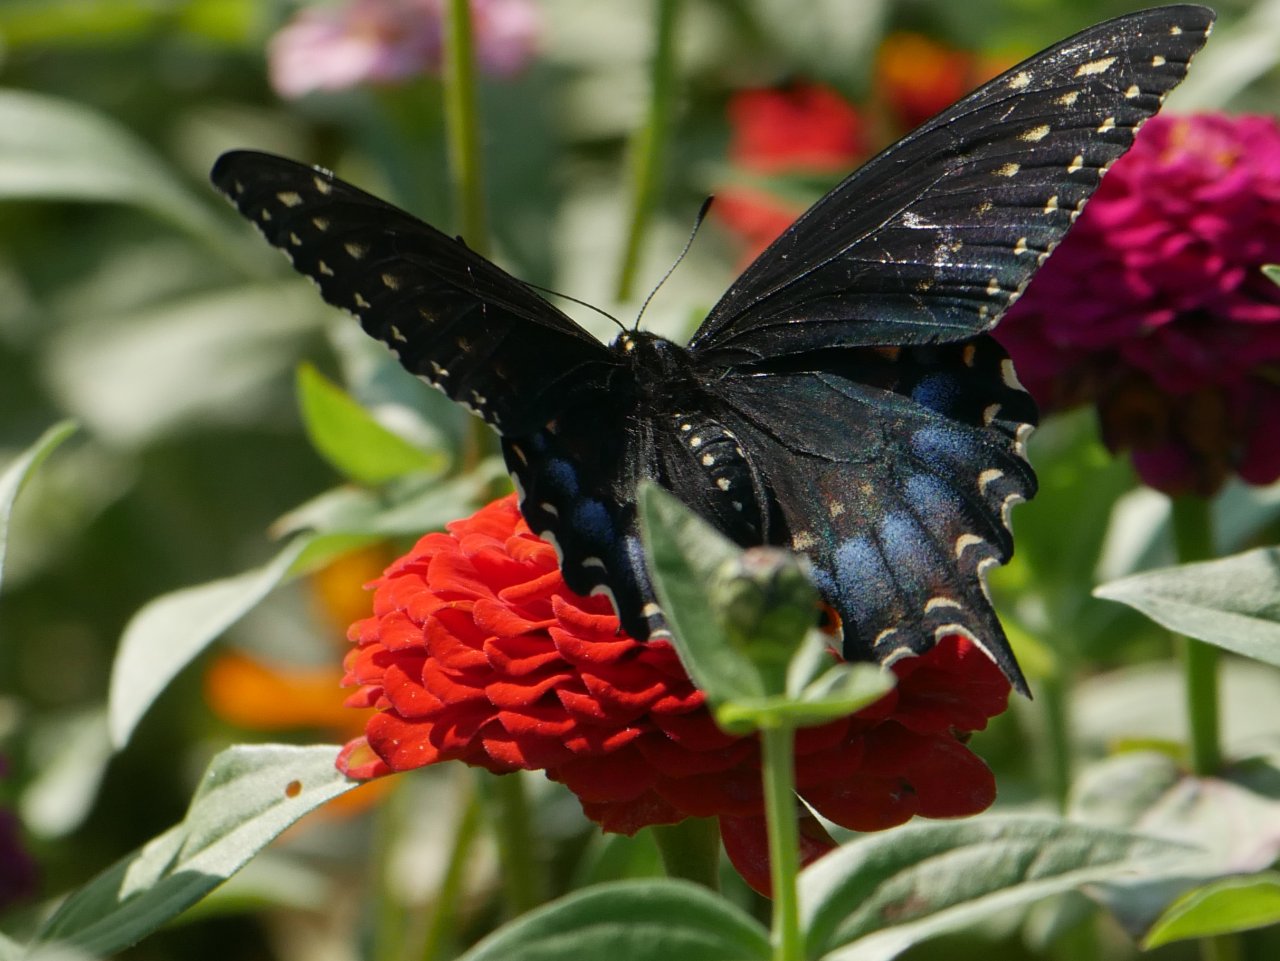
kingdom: Animalia
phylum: Arthropoda
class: Insecta
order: Lepidoptera
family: Papilionidae
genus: Papilio
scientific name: Papilio polyxenes
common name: Black Swallowtail
